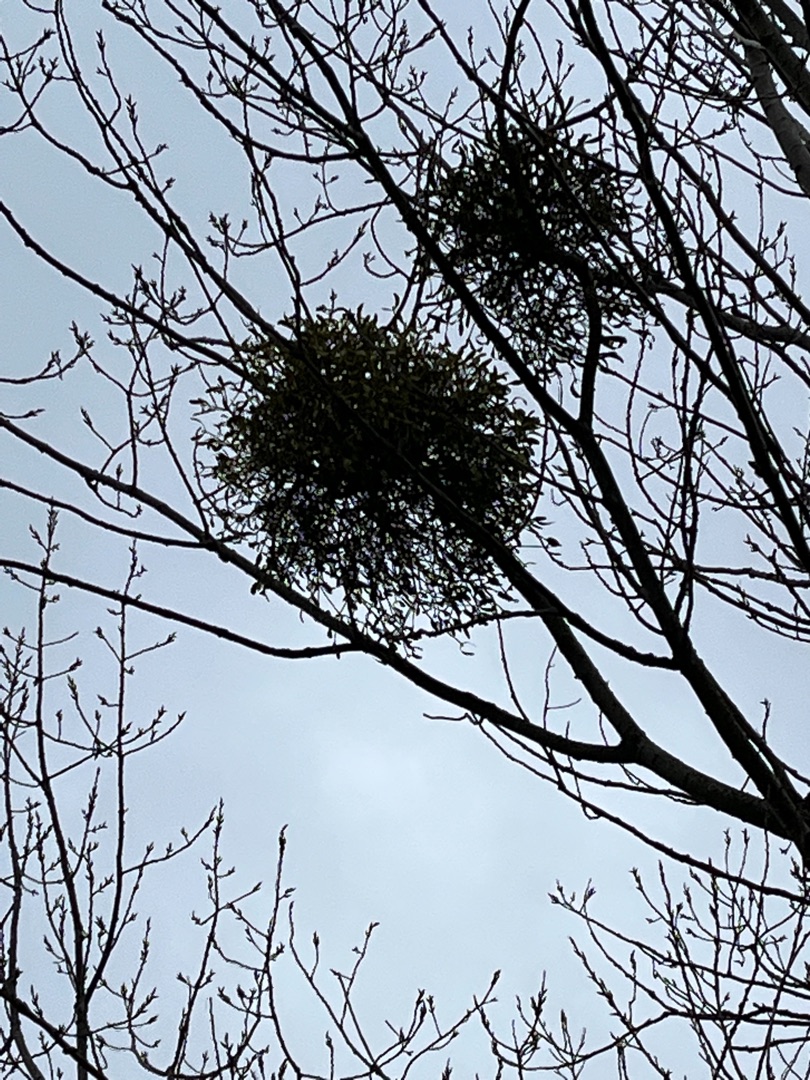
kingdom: Plantae
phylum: Tracheophyta
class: Magnoliopsida
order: Santalales
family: Viscaceae
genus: Viscum
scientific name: Viscum album
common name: Mistelten
